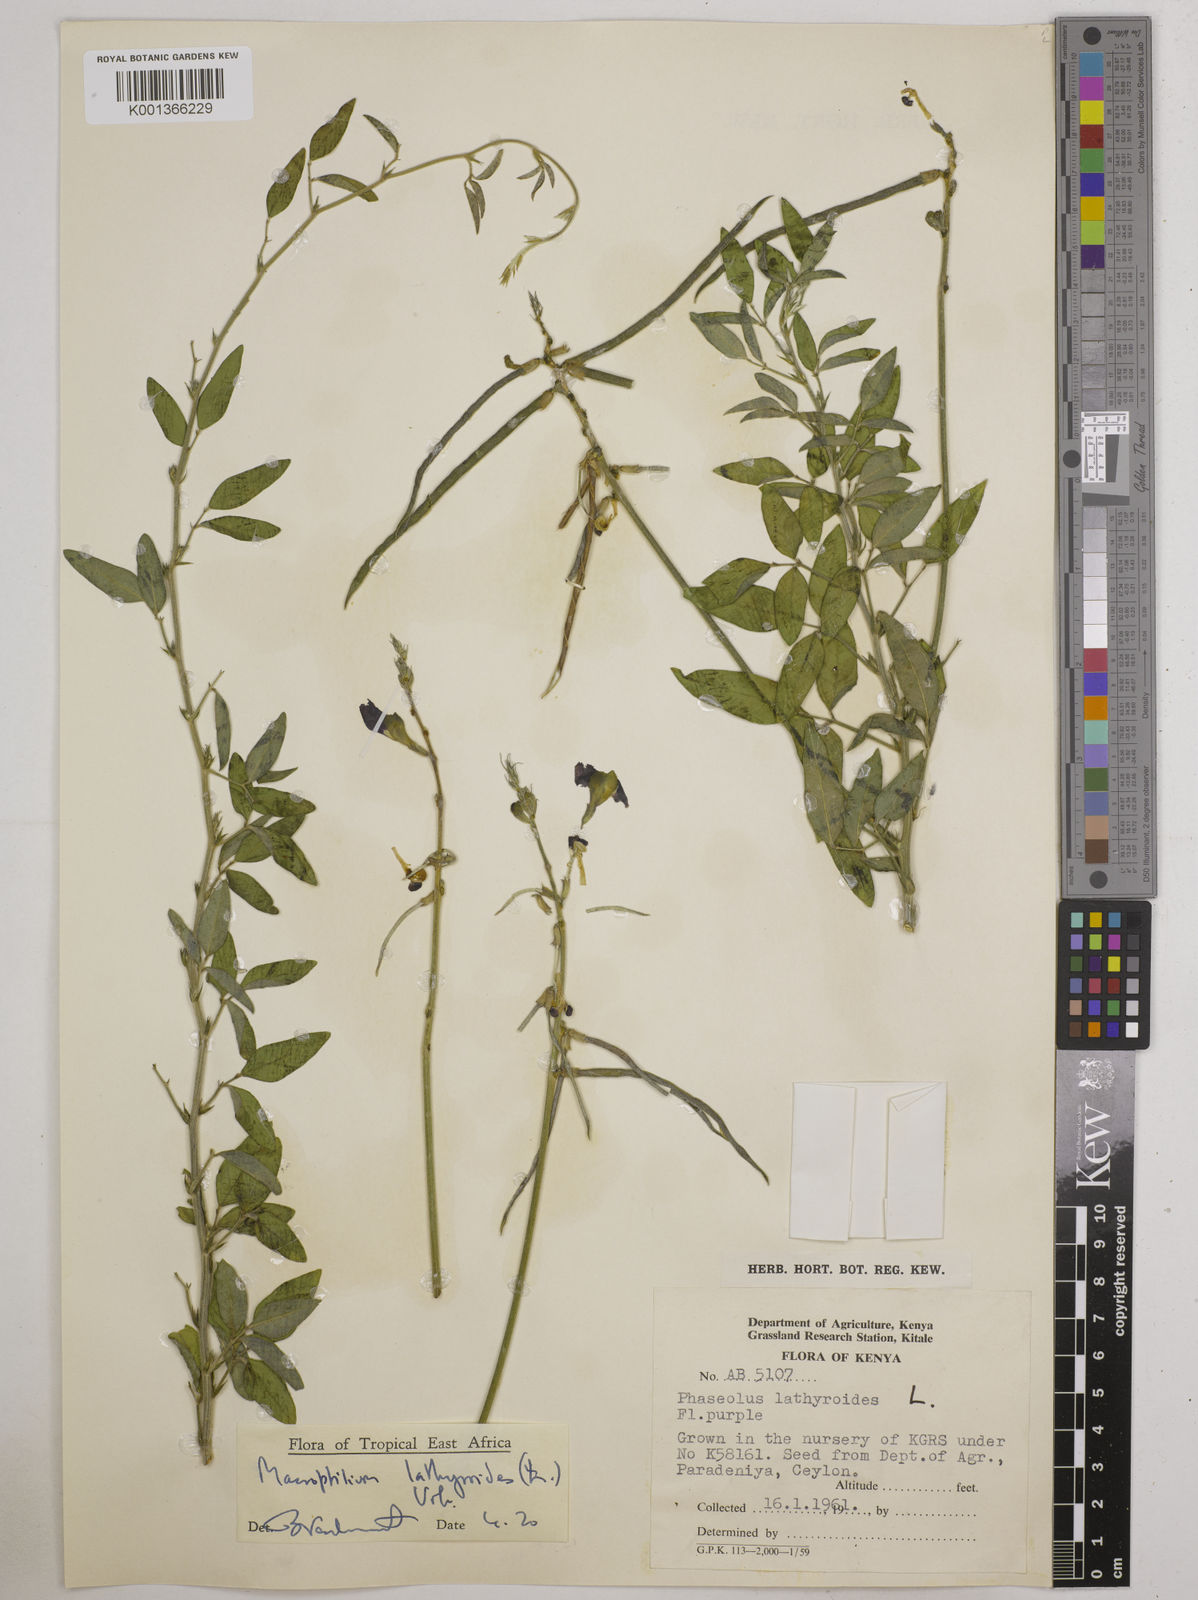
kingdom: Plantae
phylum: Tracheophyta
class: Magnoliopsida
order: Fabales
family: Fabaceae
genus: Macroptilium
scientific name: Macroptilium lathyroides
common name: Wild bushbean
